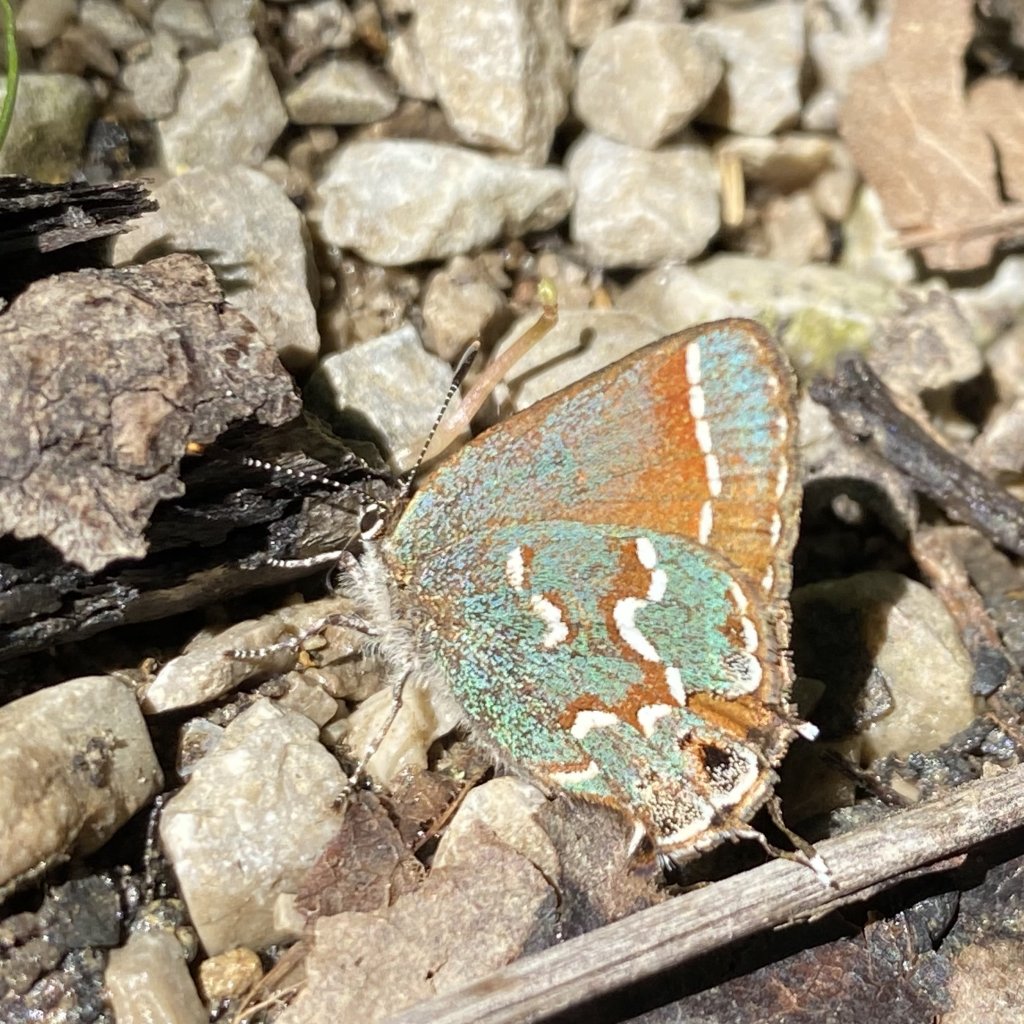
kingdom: Animalia
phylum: Arthropoda
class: Insecta
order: Lepidoptera
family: Lycaenidae
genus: Mitoura
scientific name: Mitoura gryneus
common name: Juniper Hairstreak
